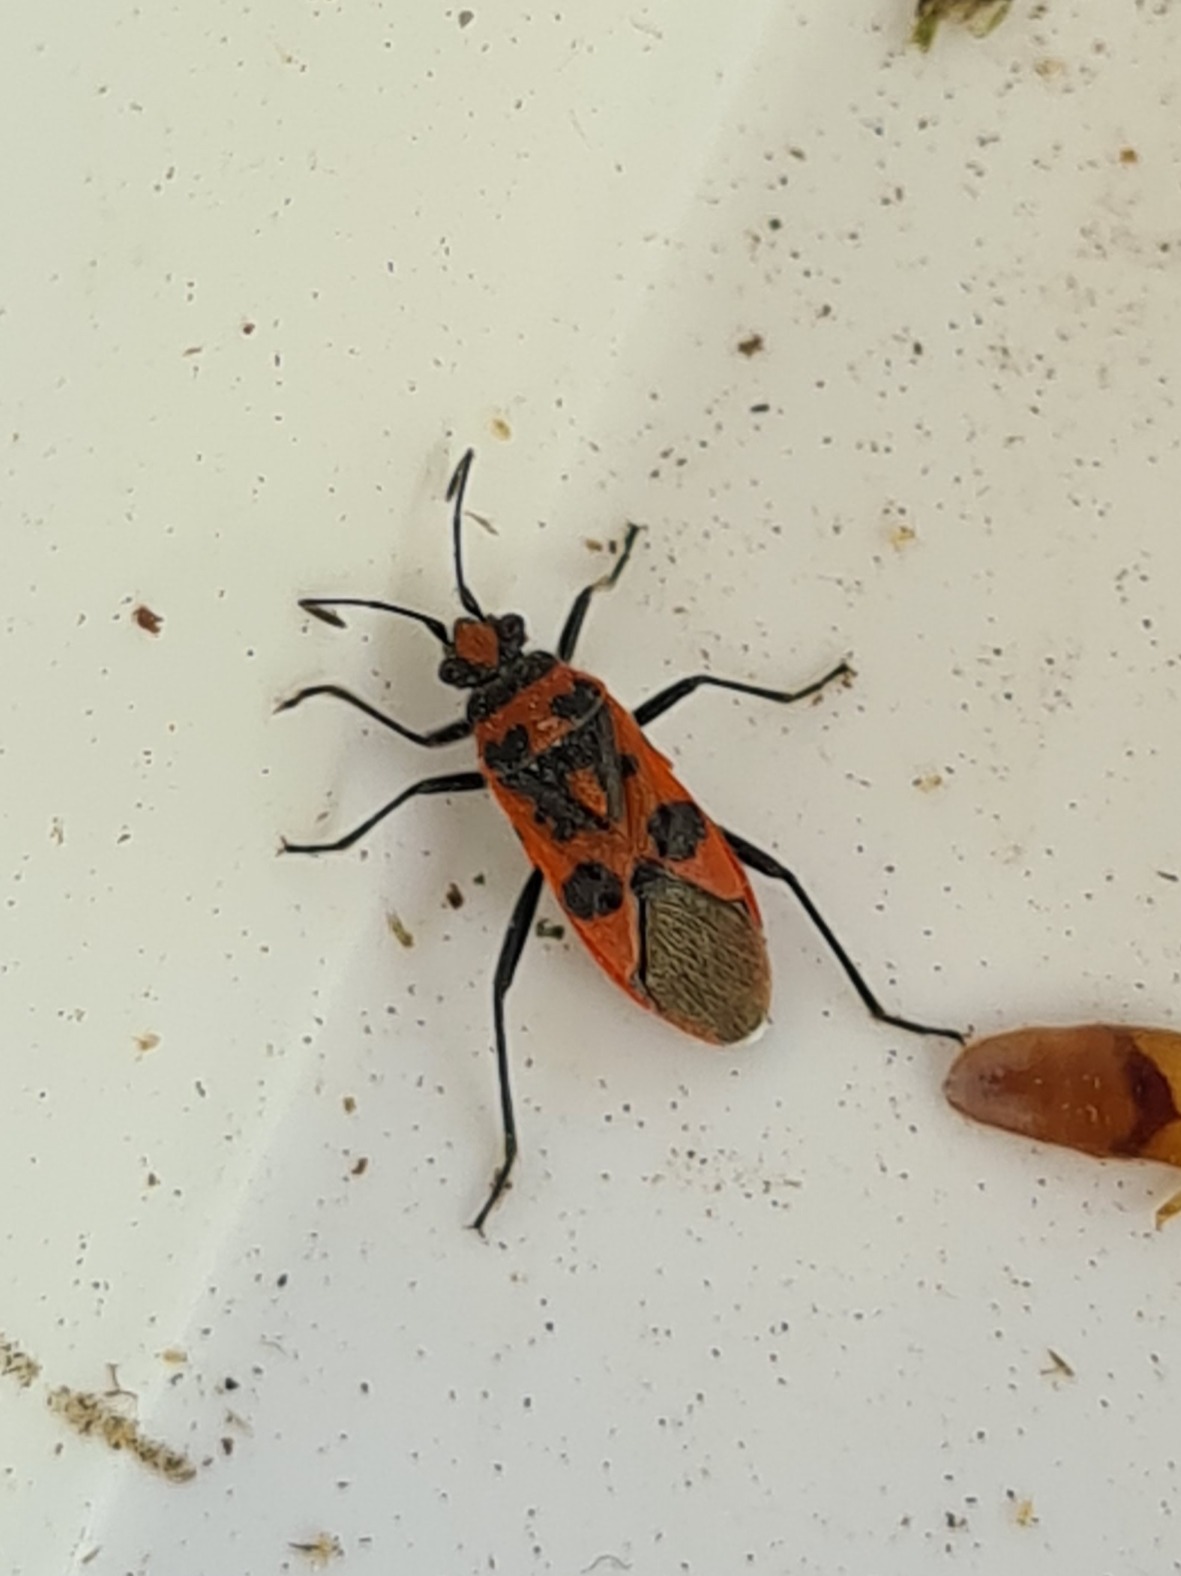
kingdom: Animalia
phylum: Arthropoda
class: Insecta
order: Hemiptera
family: Rhopalidae
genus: Corizus
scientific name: Corizus hyoscyami
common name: Rød kanttæge
